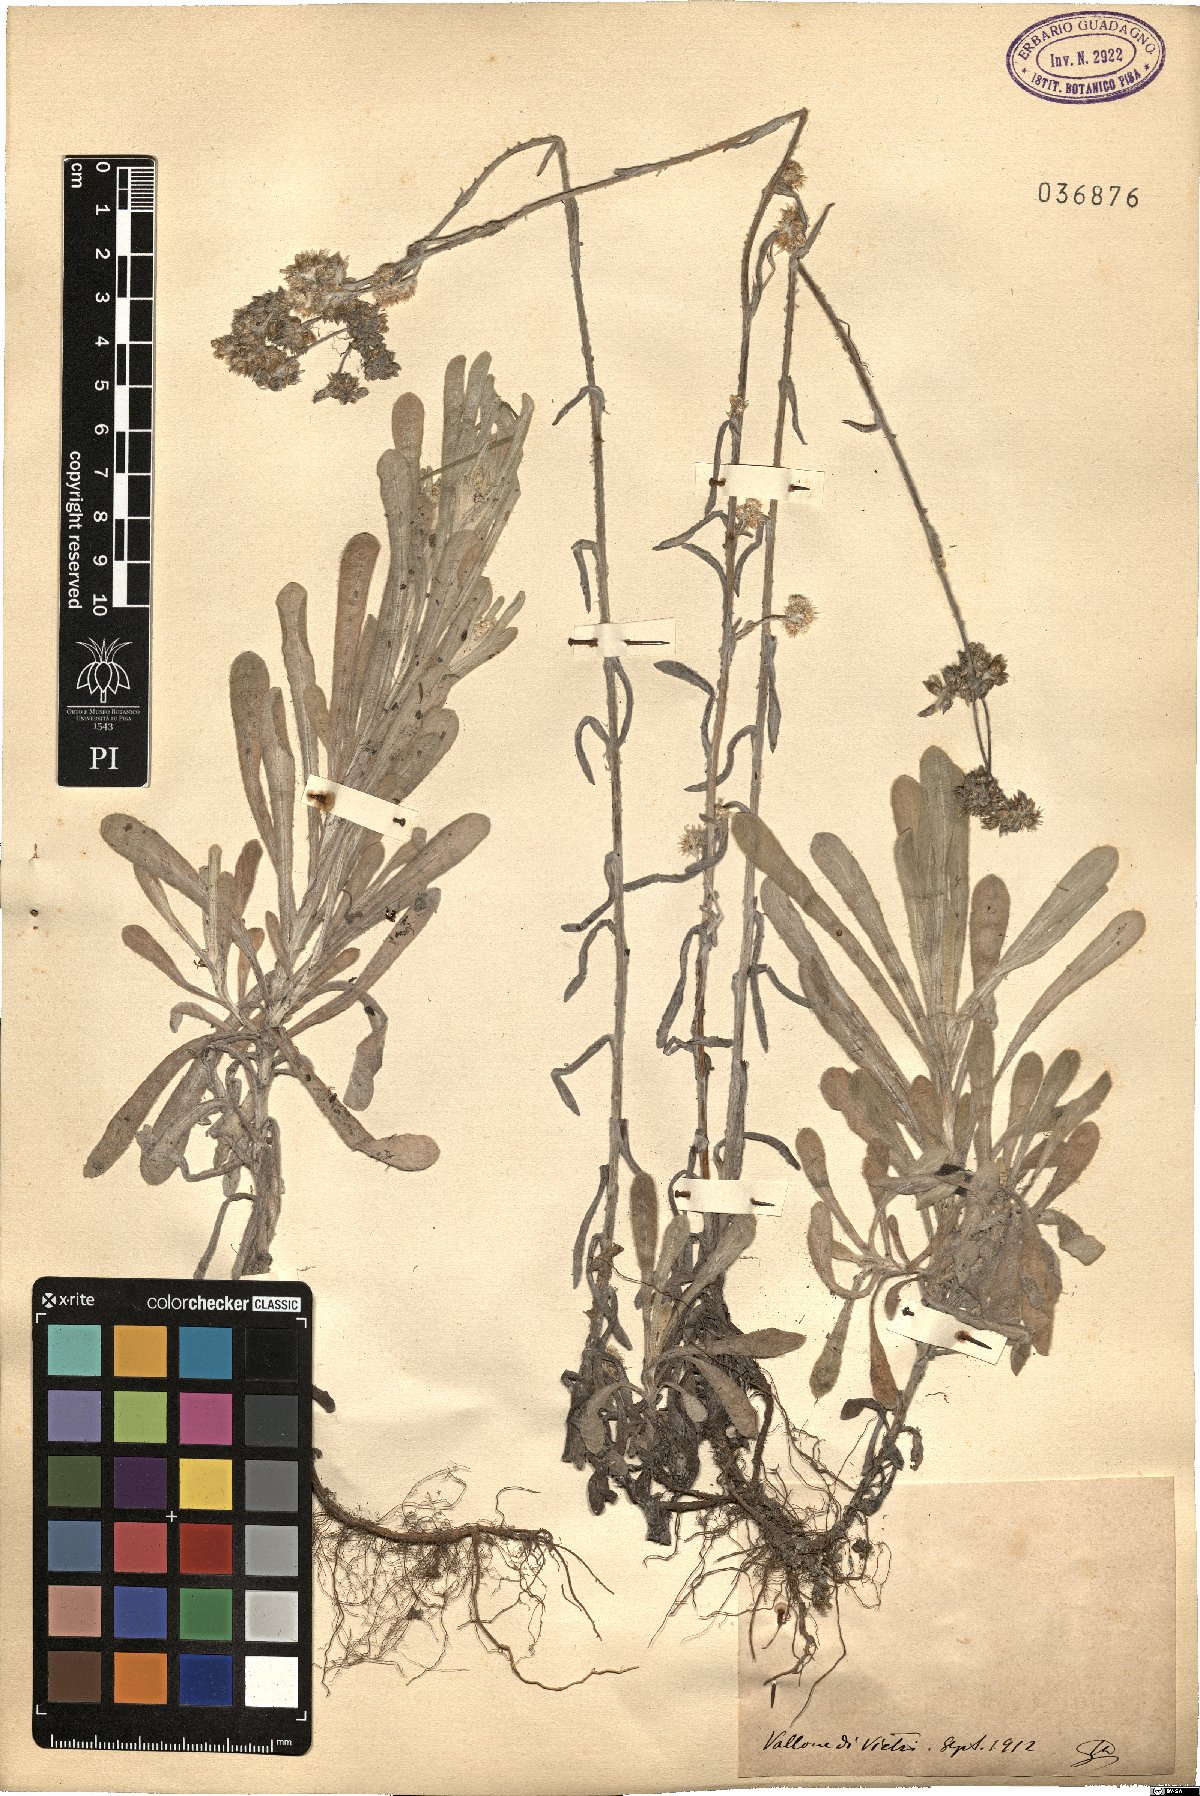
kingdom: Plantae
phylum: Tracheophyta
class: Magnoliopsida
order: Asterales
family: Asteraceae
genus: Gnaphalium
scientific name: Gnaphalium
